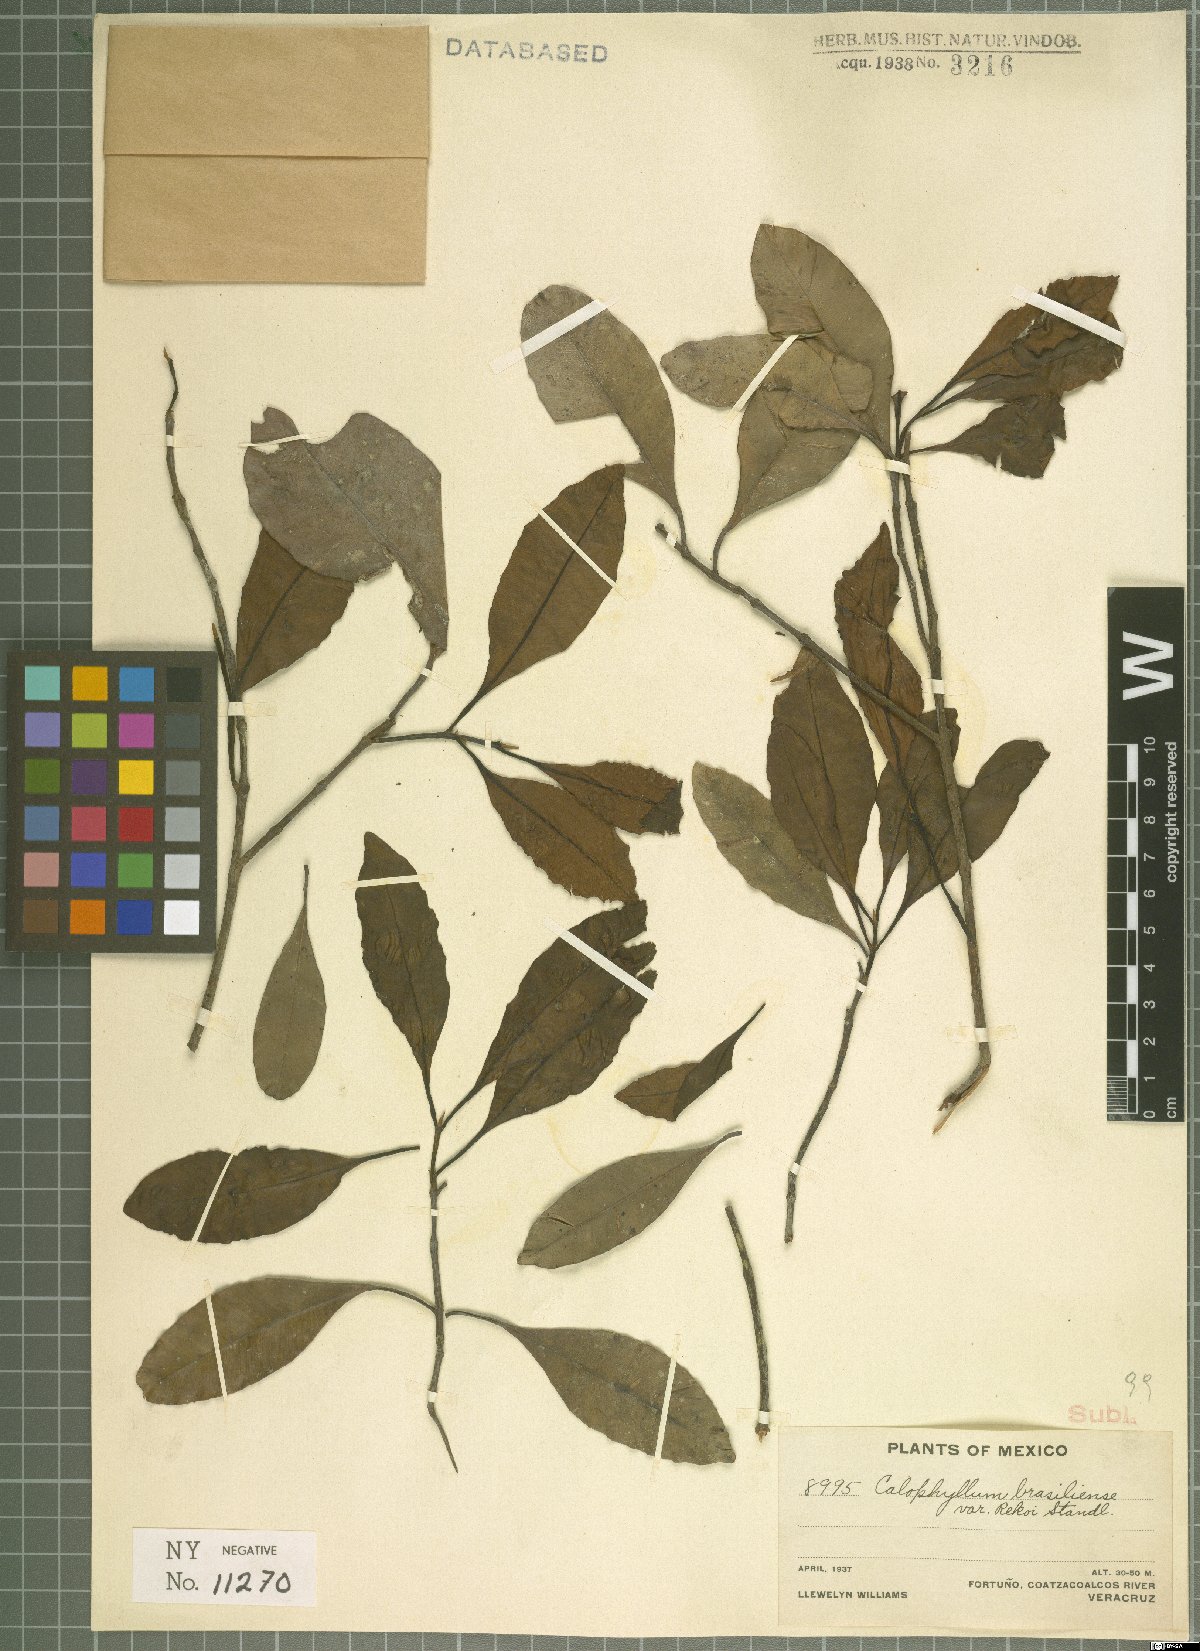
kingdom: Plantae
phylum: Tracheophyta
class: Magnoliopsida
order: Malpighiales
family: Calophyllaceae
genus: Calophyllum
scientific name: Calophyllum brasiliense
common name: Santa maria
